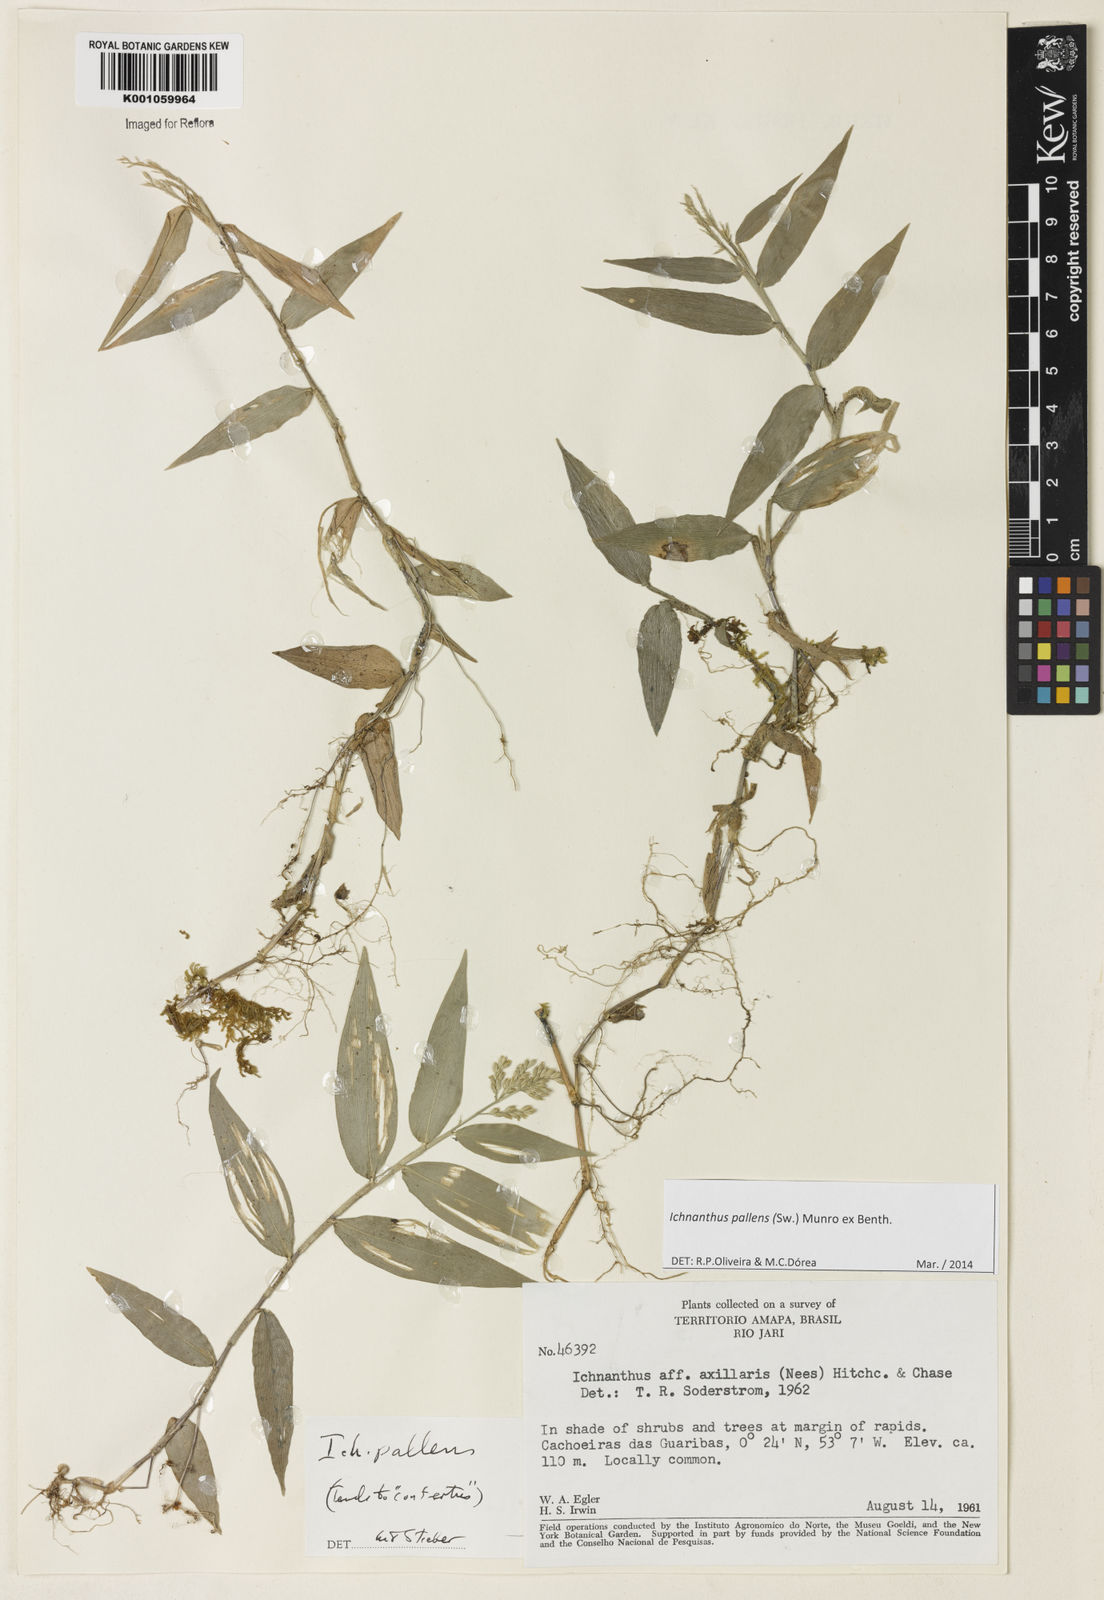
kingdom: Plantae
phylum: Tracheophyta
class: Liliopsida
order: Poales
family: Poaceae
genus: Ichnanthus
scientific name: Ichnanthus pallens
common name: Water grass
